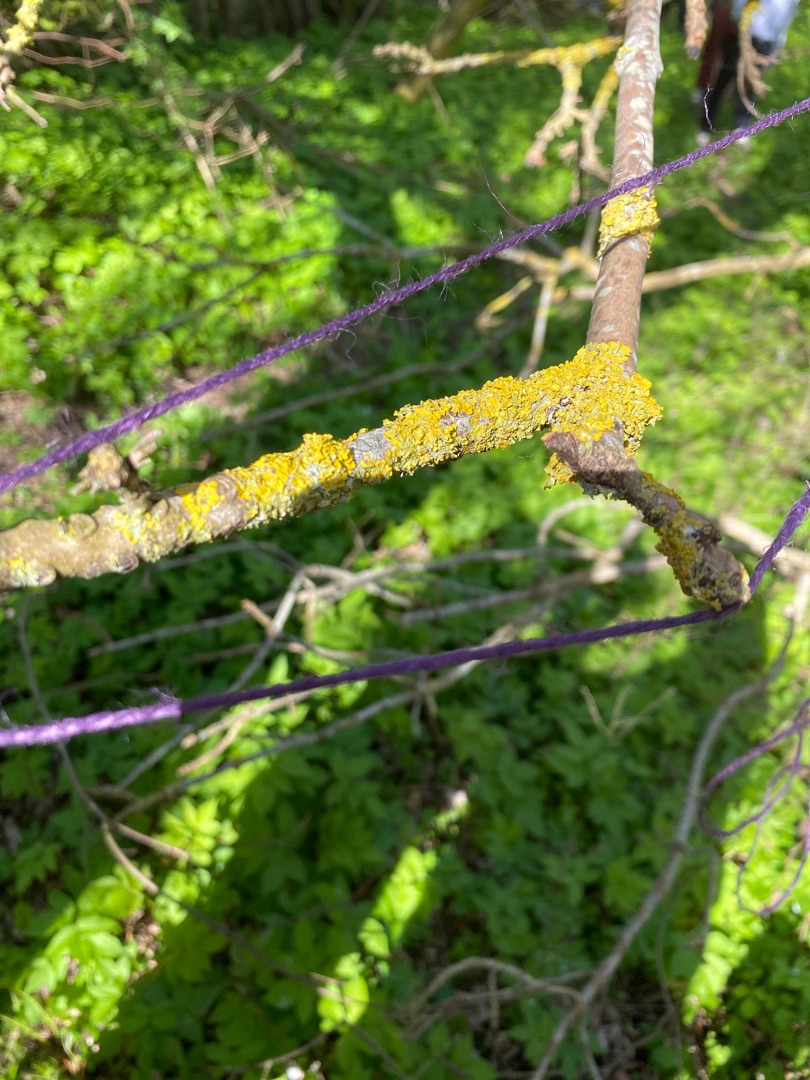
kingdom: Fungi
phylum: Ascomycota
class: Lecanoromycetes
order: Teloschistales
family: Teloschistaceae
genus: Xanthoria
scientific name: Xanthoria parietina
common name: Almindelig væggelav
